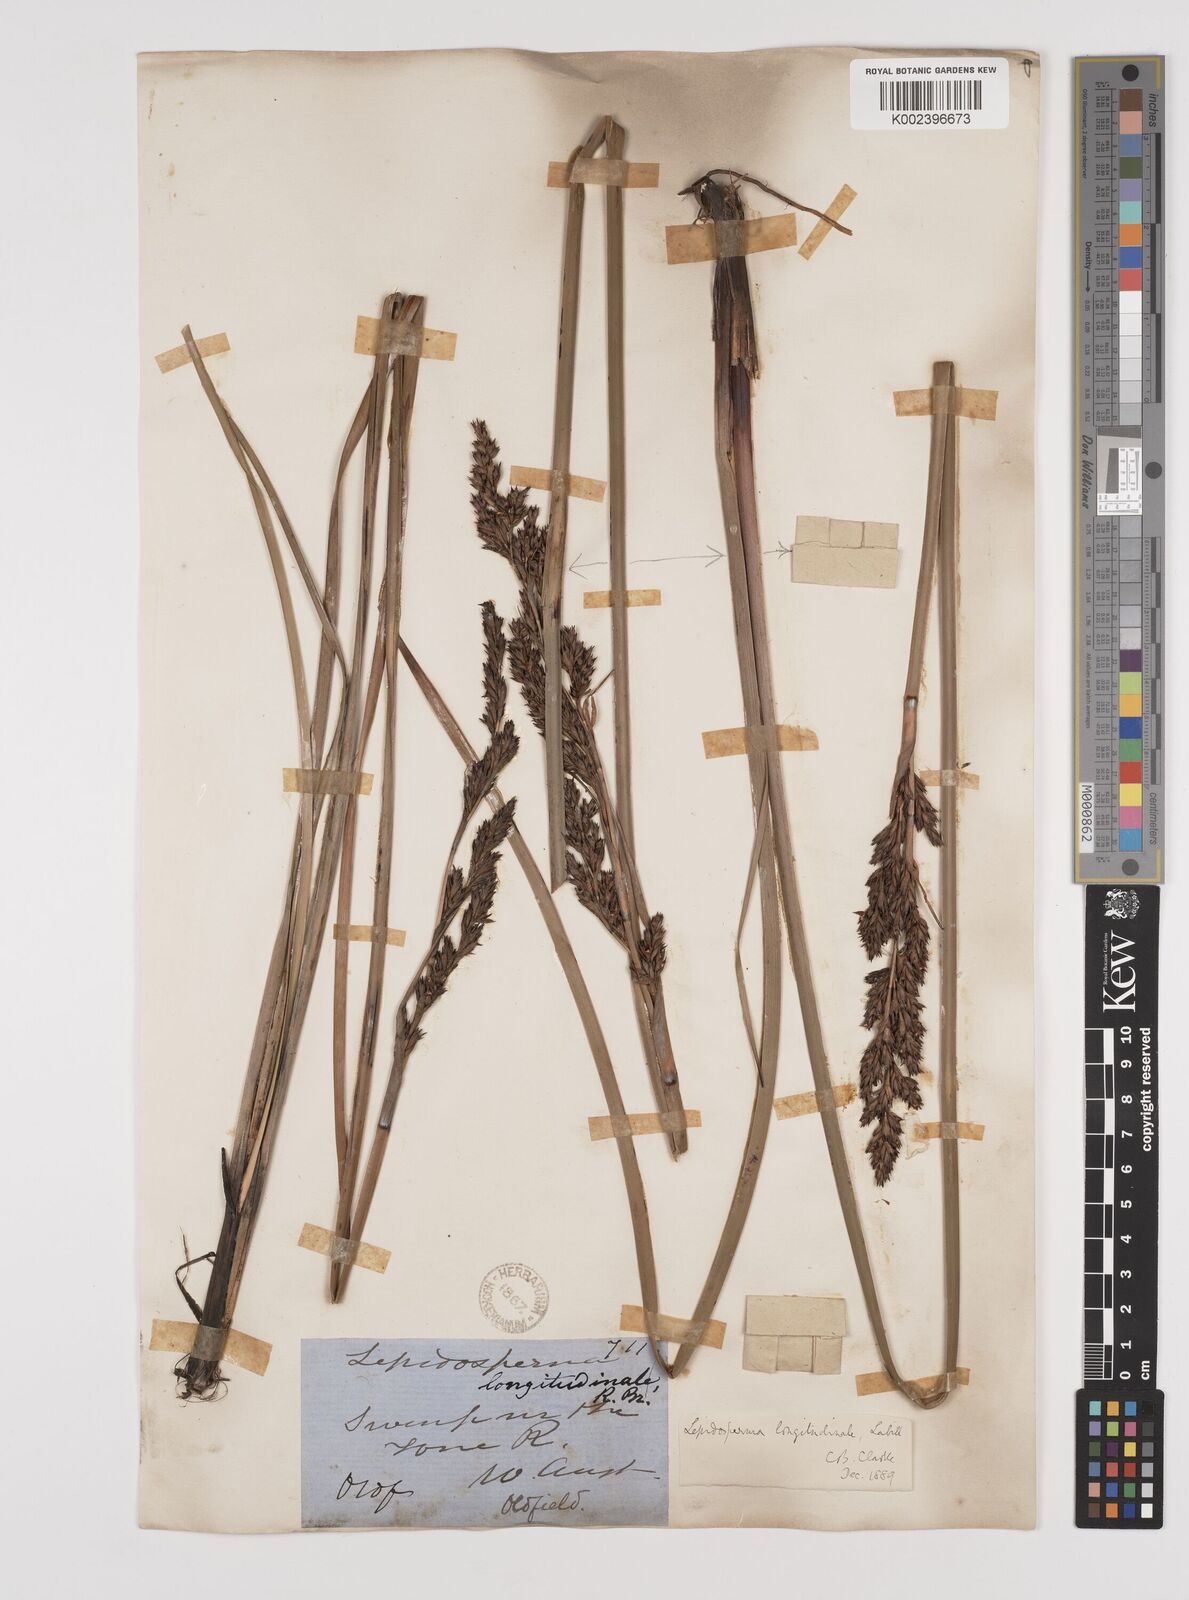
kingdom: Plantae
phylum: Tracheophyta
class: Liliopsida
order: Poales
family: Cyperaceae
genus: Lepidosperma
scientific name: Lepidosperma longitudinale
